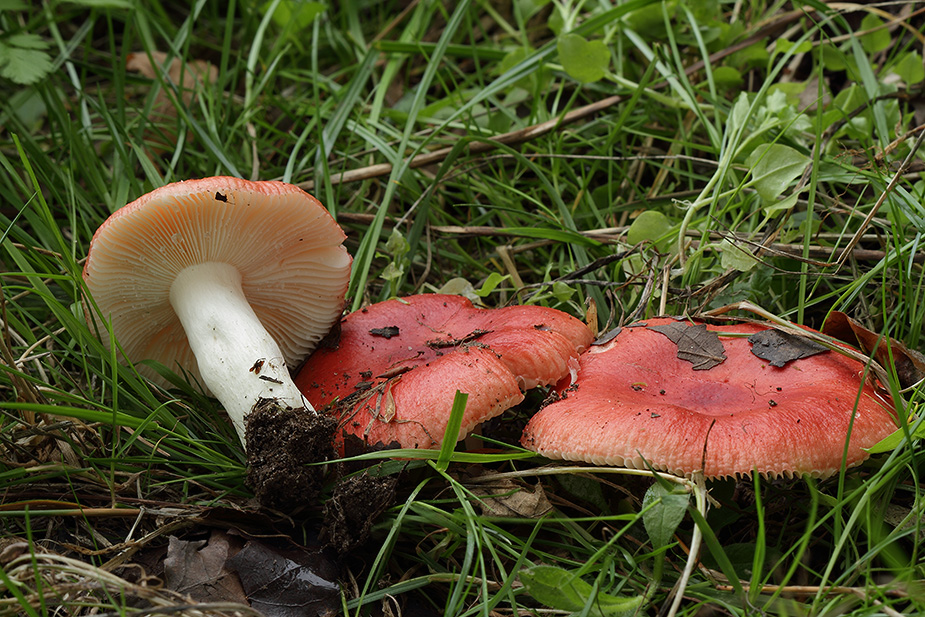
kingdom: Fungi
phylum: Basidiomycota
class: Agaricomycetes
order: Russulales
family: Russulaceae
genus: Russula
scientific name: Russula luteotacta
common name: gulplettet gift-skørhat
